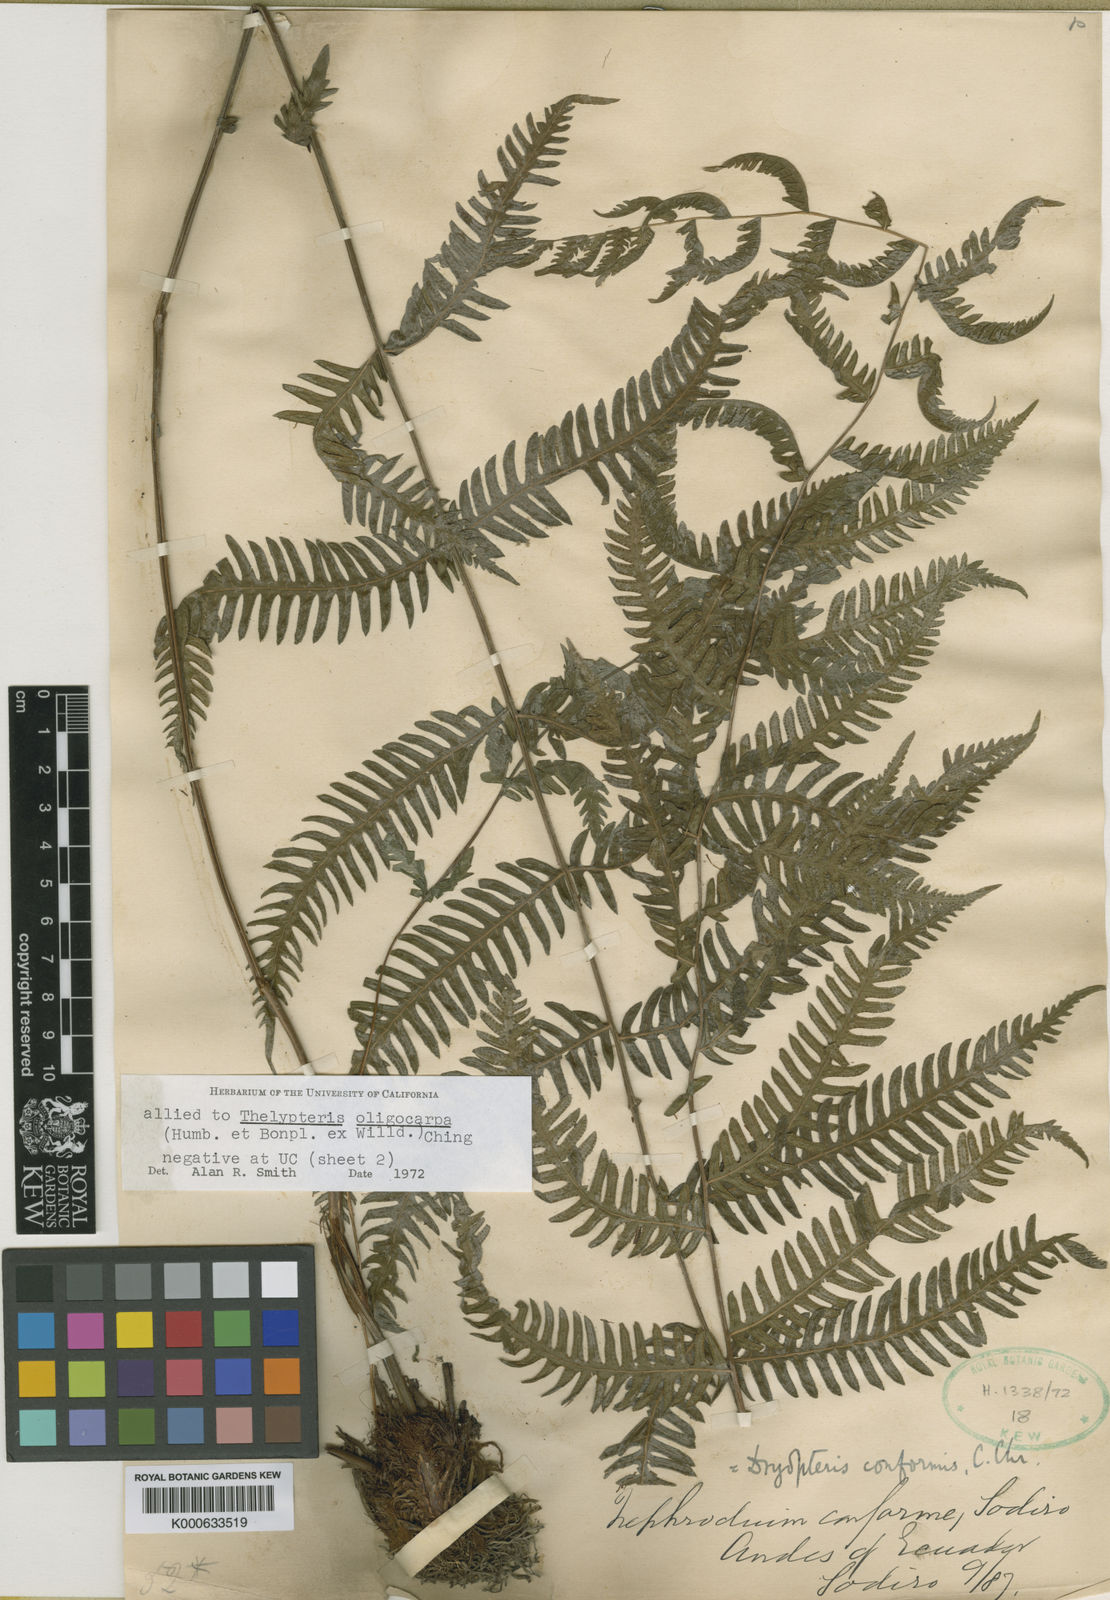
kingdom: Plantae
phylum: Tracheophyta
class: Polypodiopsida
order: Polypodiales
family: Thelypteridaceae
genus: Amauropelta
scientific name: Amauropelta conformis
